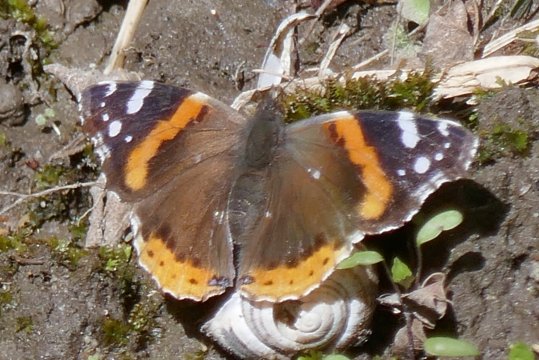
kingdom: Animalia
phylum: Arthropoda
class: Insecta
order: Lepidoptera
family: Nymphalidae
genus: Vanessa
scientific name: Vanessa atalanta
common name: Red Admiral
